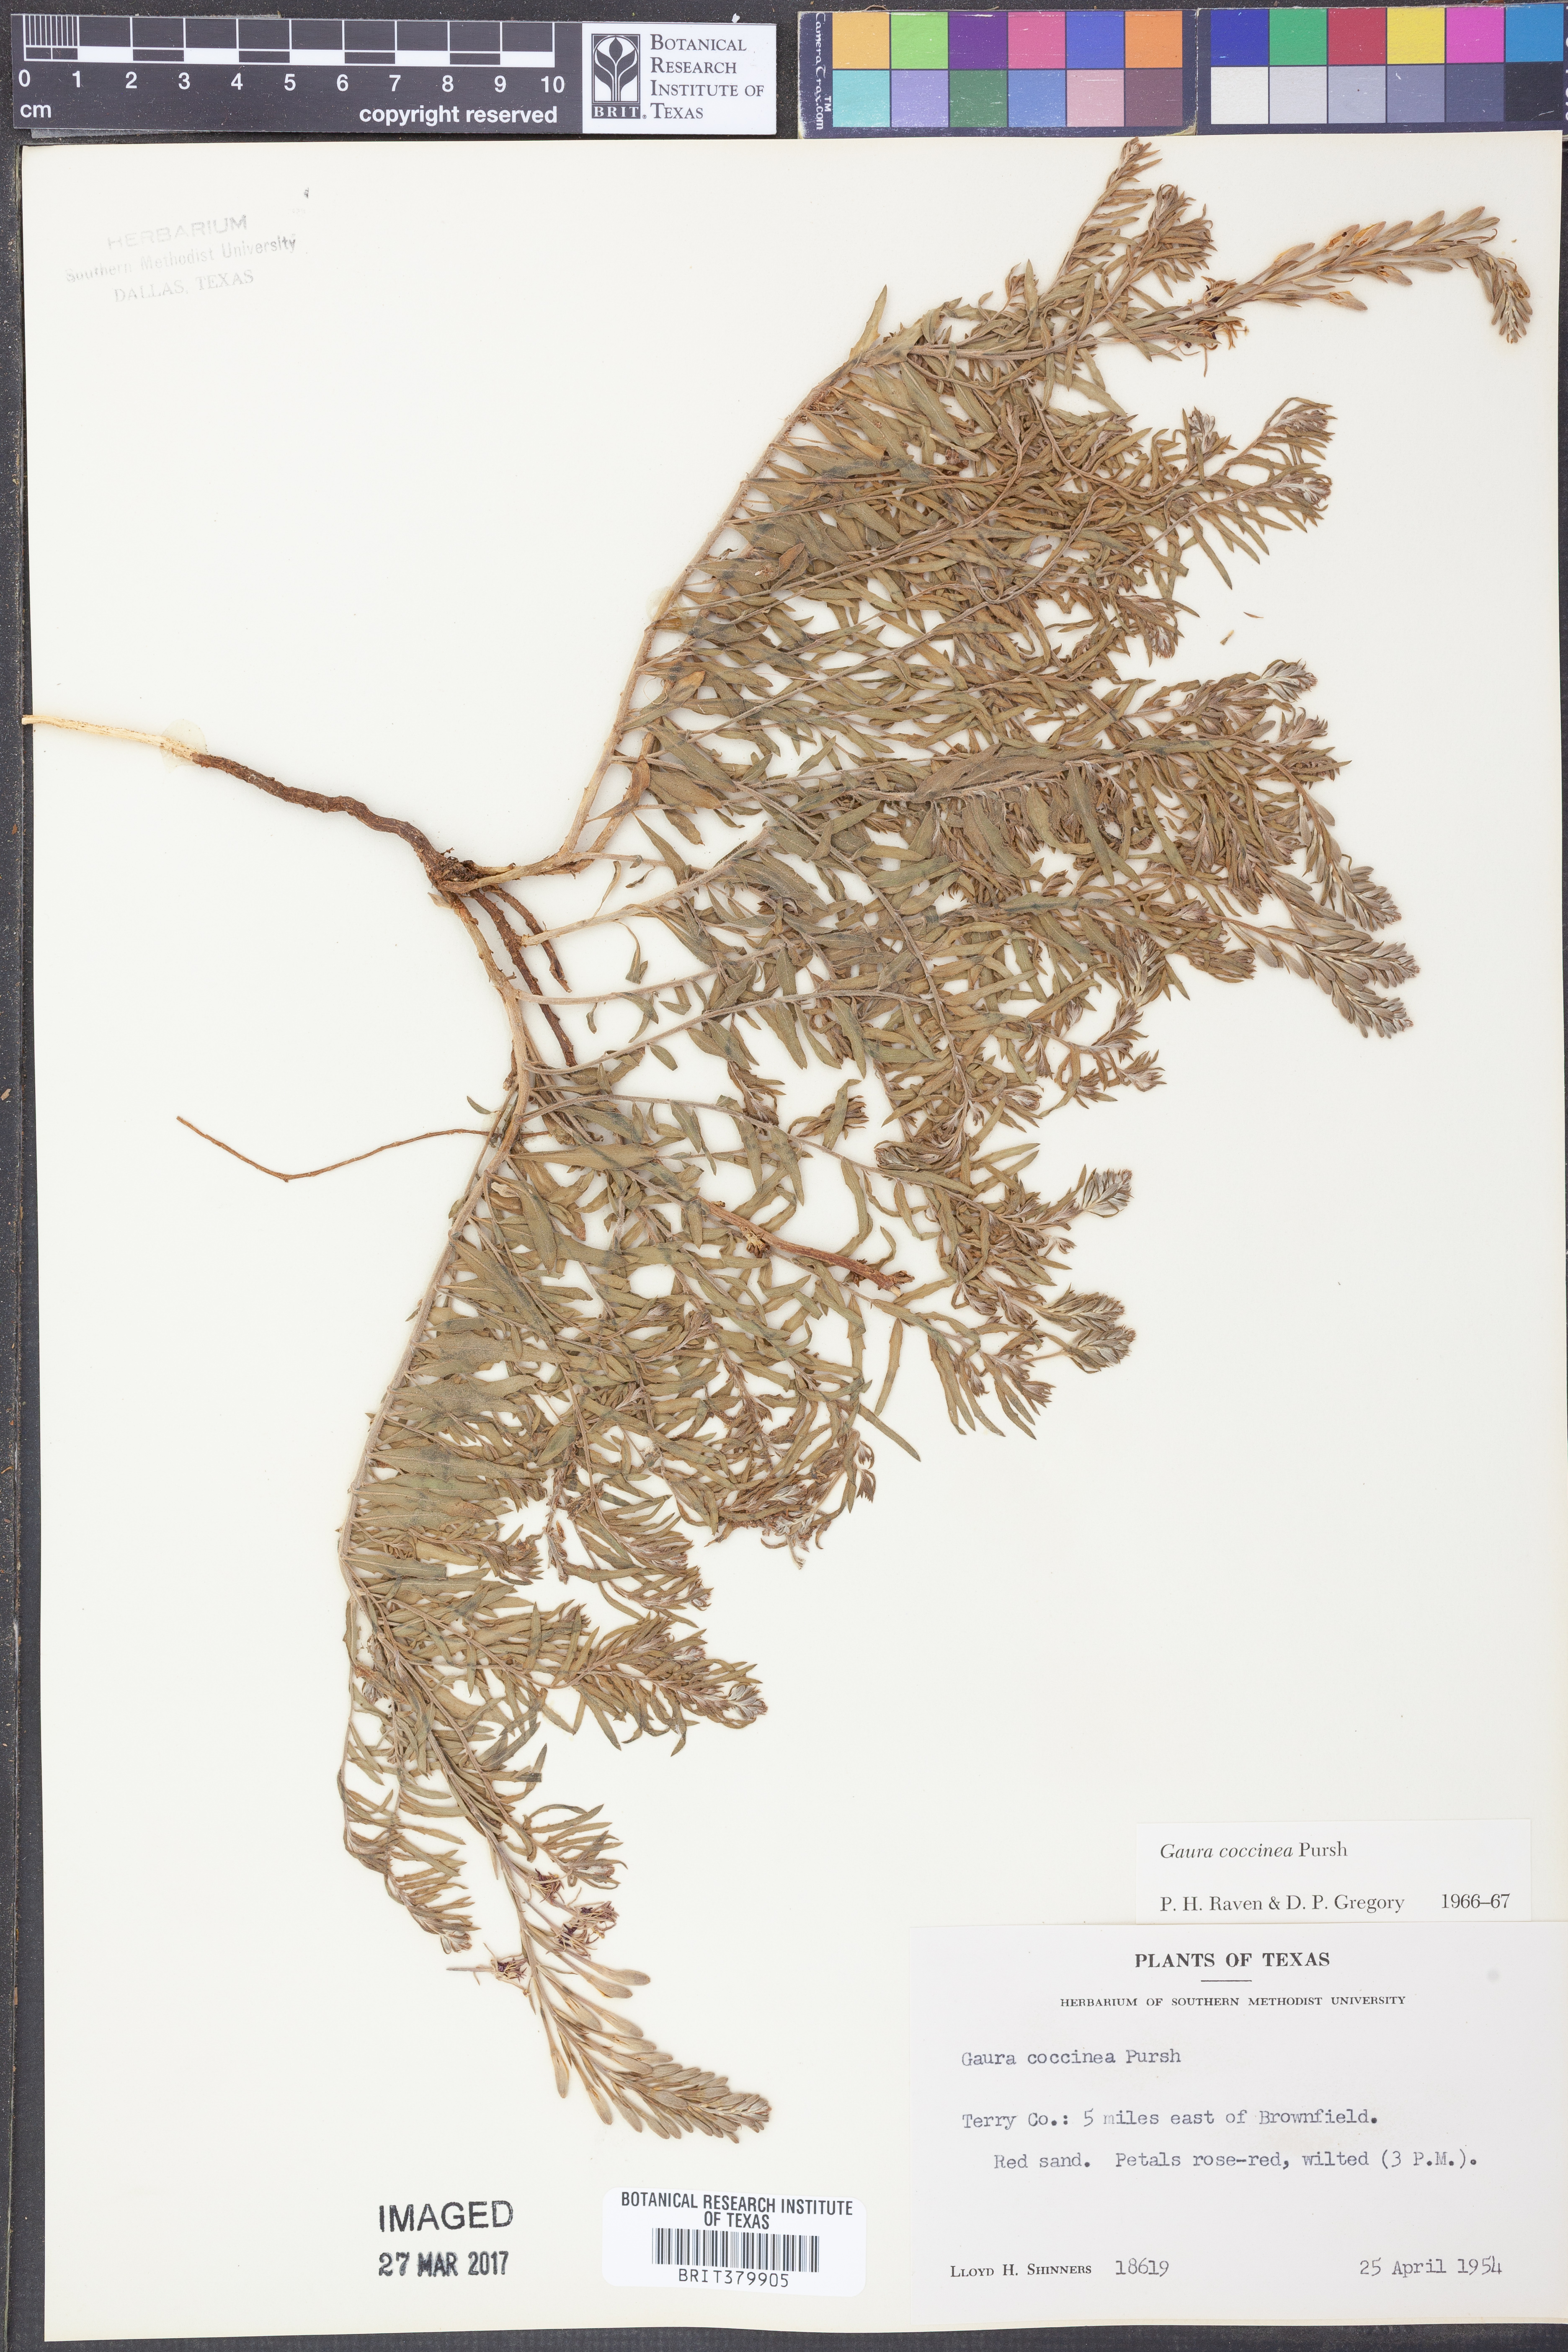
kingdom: Plantae
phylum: Tracheophyta
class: Magnoliopsida
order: Myrtales
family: Onagraceae
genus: Oenothera
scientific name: Oenothera suffrutescens
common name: Scarlet beeblossom
